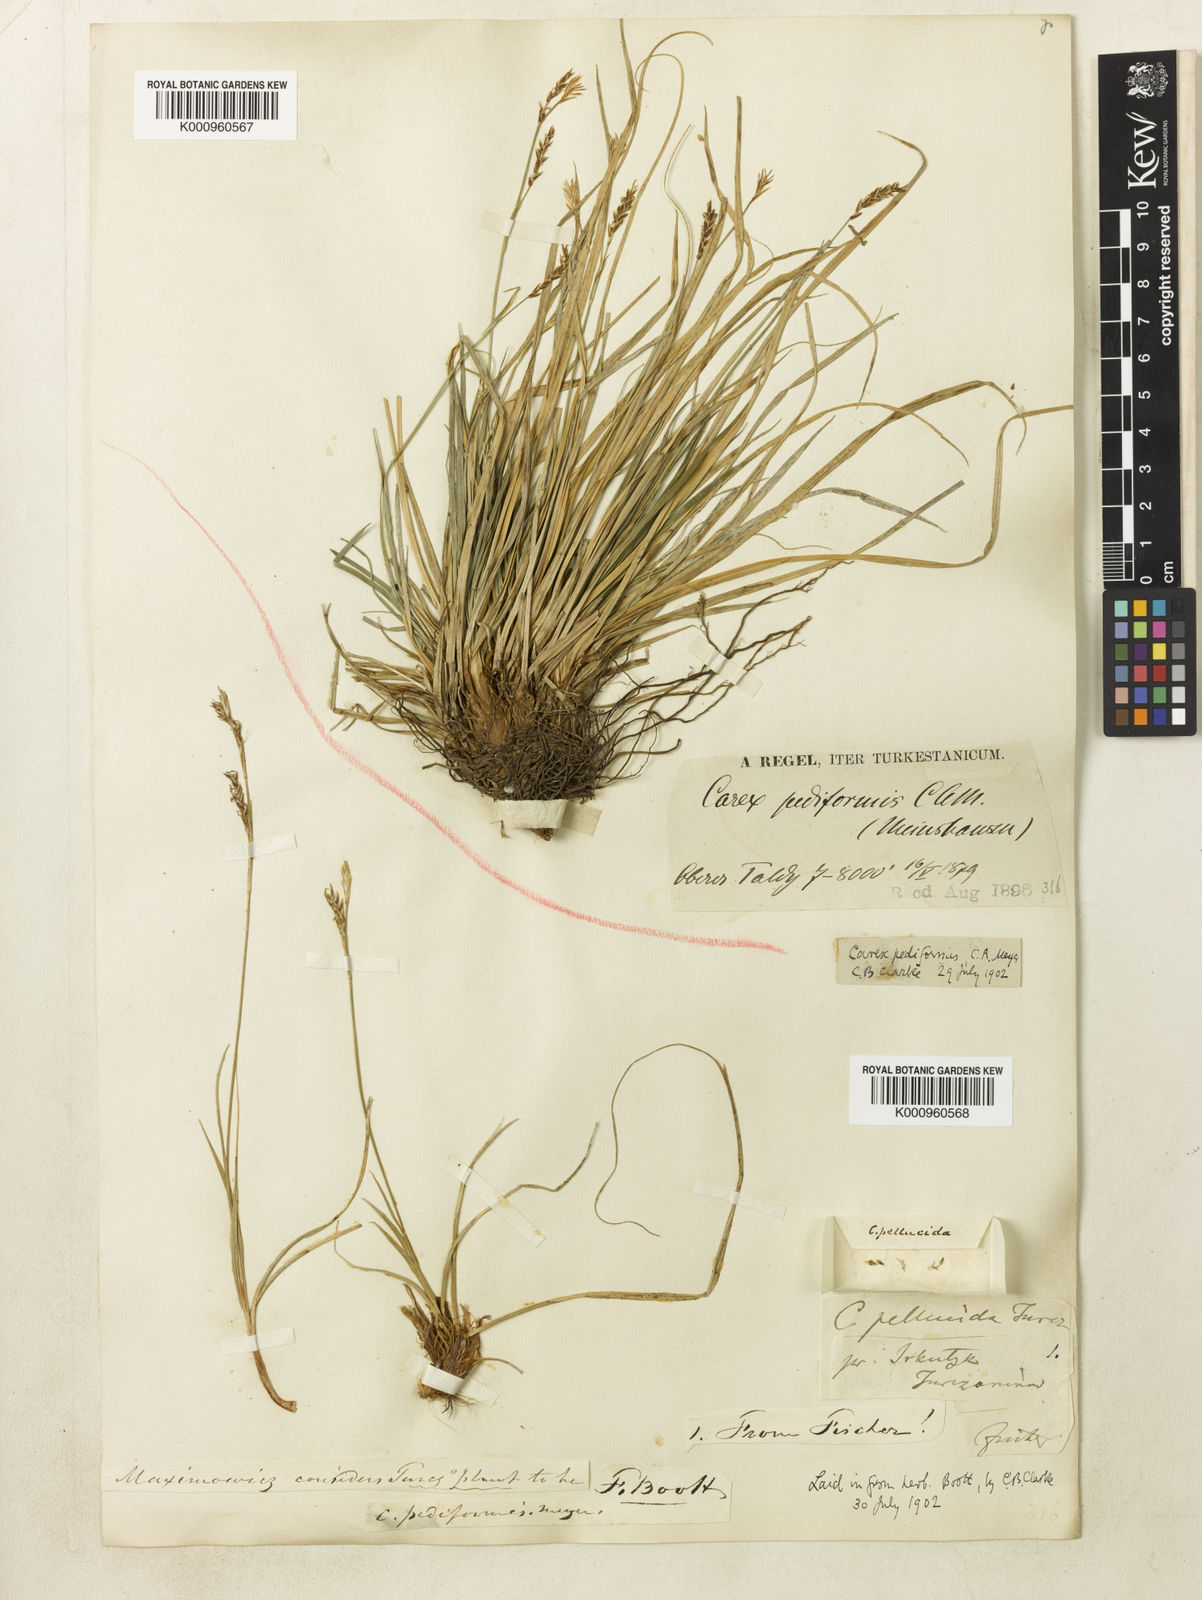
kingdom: Plantae
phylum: Tracheophyta
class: Liliopsida
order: Poales
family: Cyperaceae
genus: Carex
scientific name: Carex pediformis
